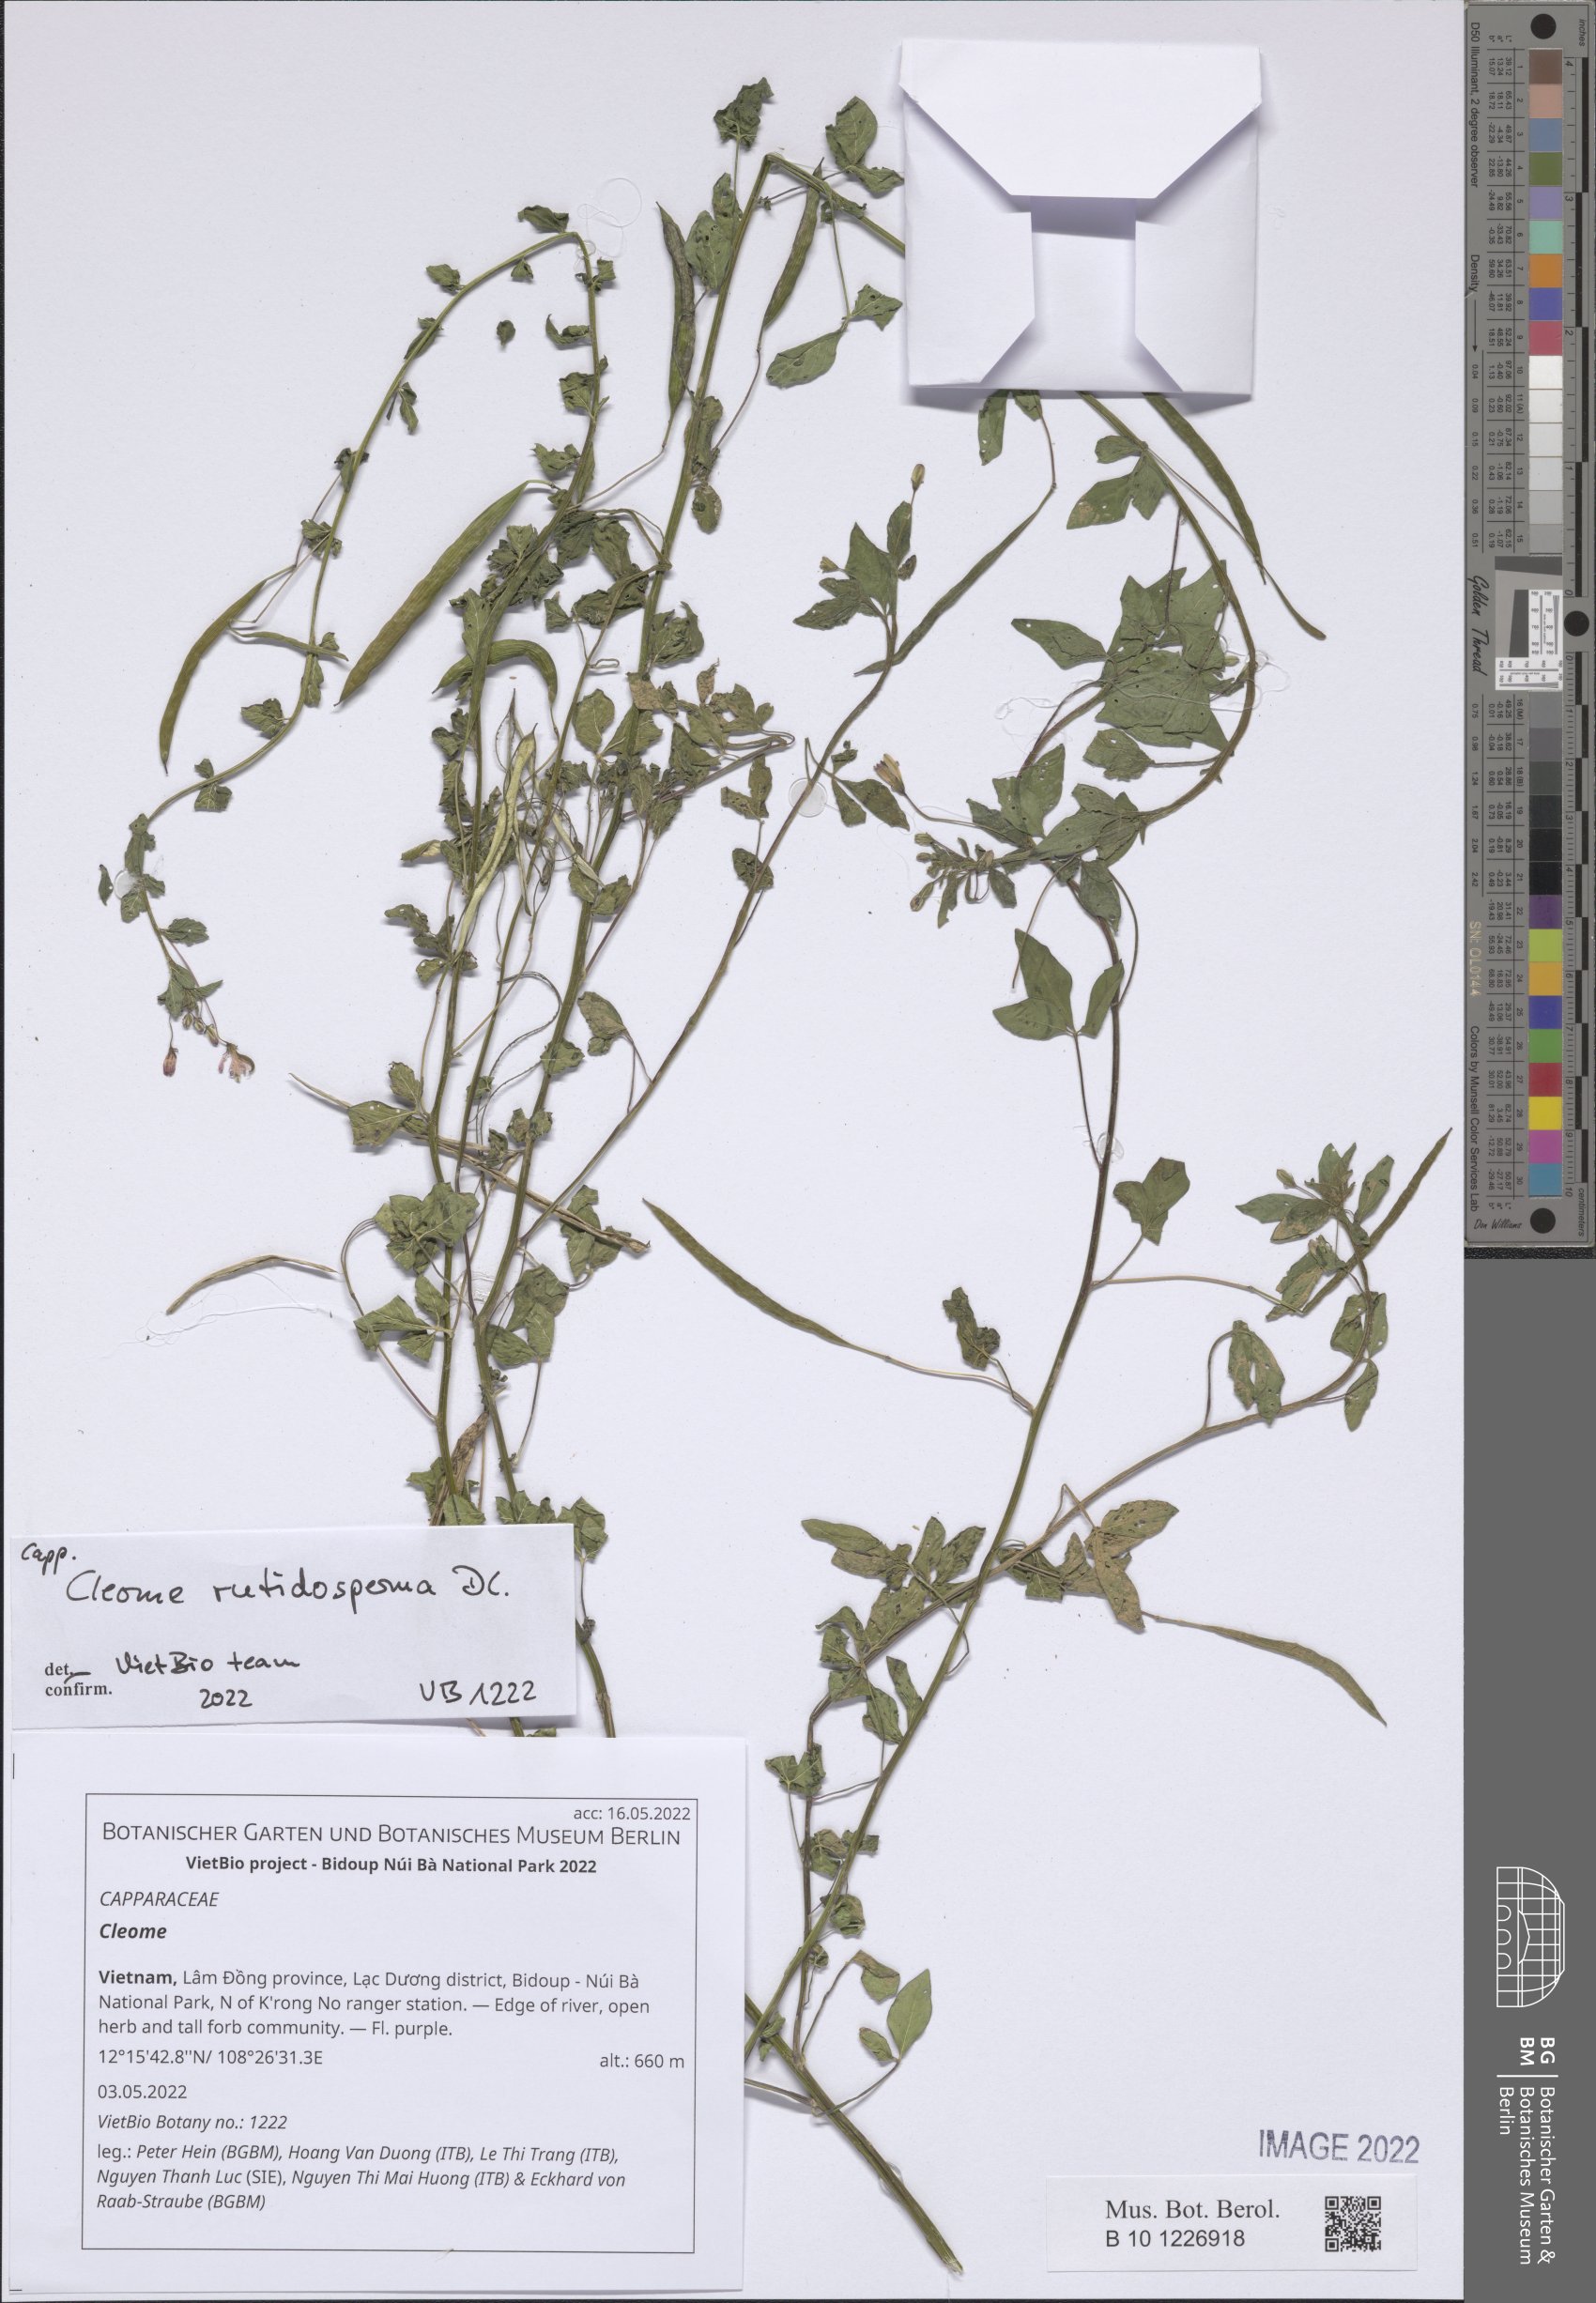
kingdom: Plantae
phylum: Tracheophyta
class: Magnoliopsida
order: Brassicales
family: Cleomaceae
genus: Cleome
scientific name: Cleome
